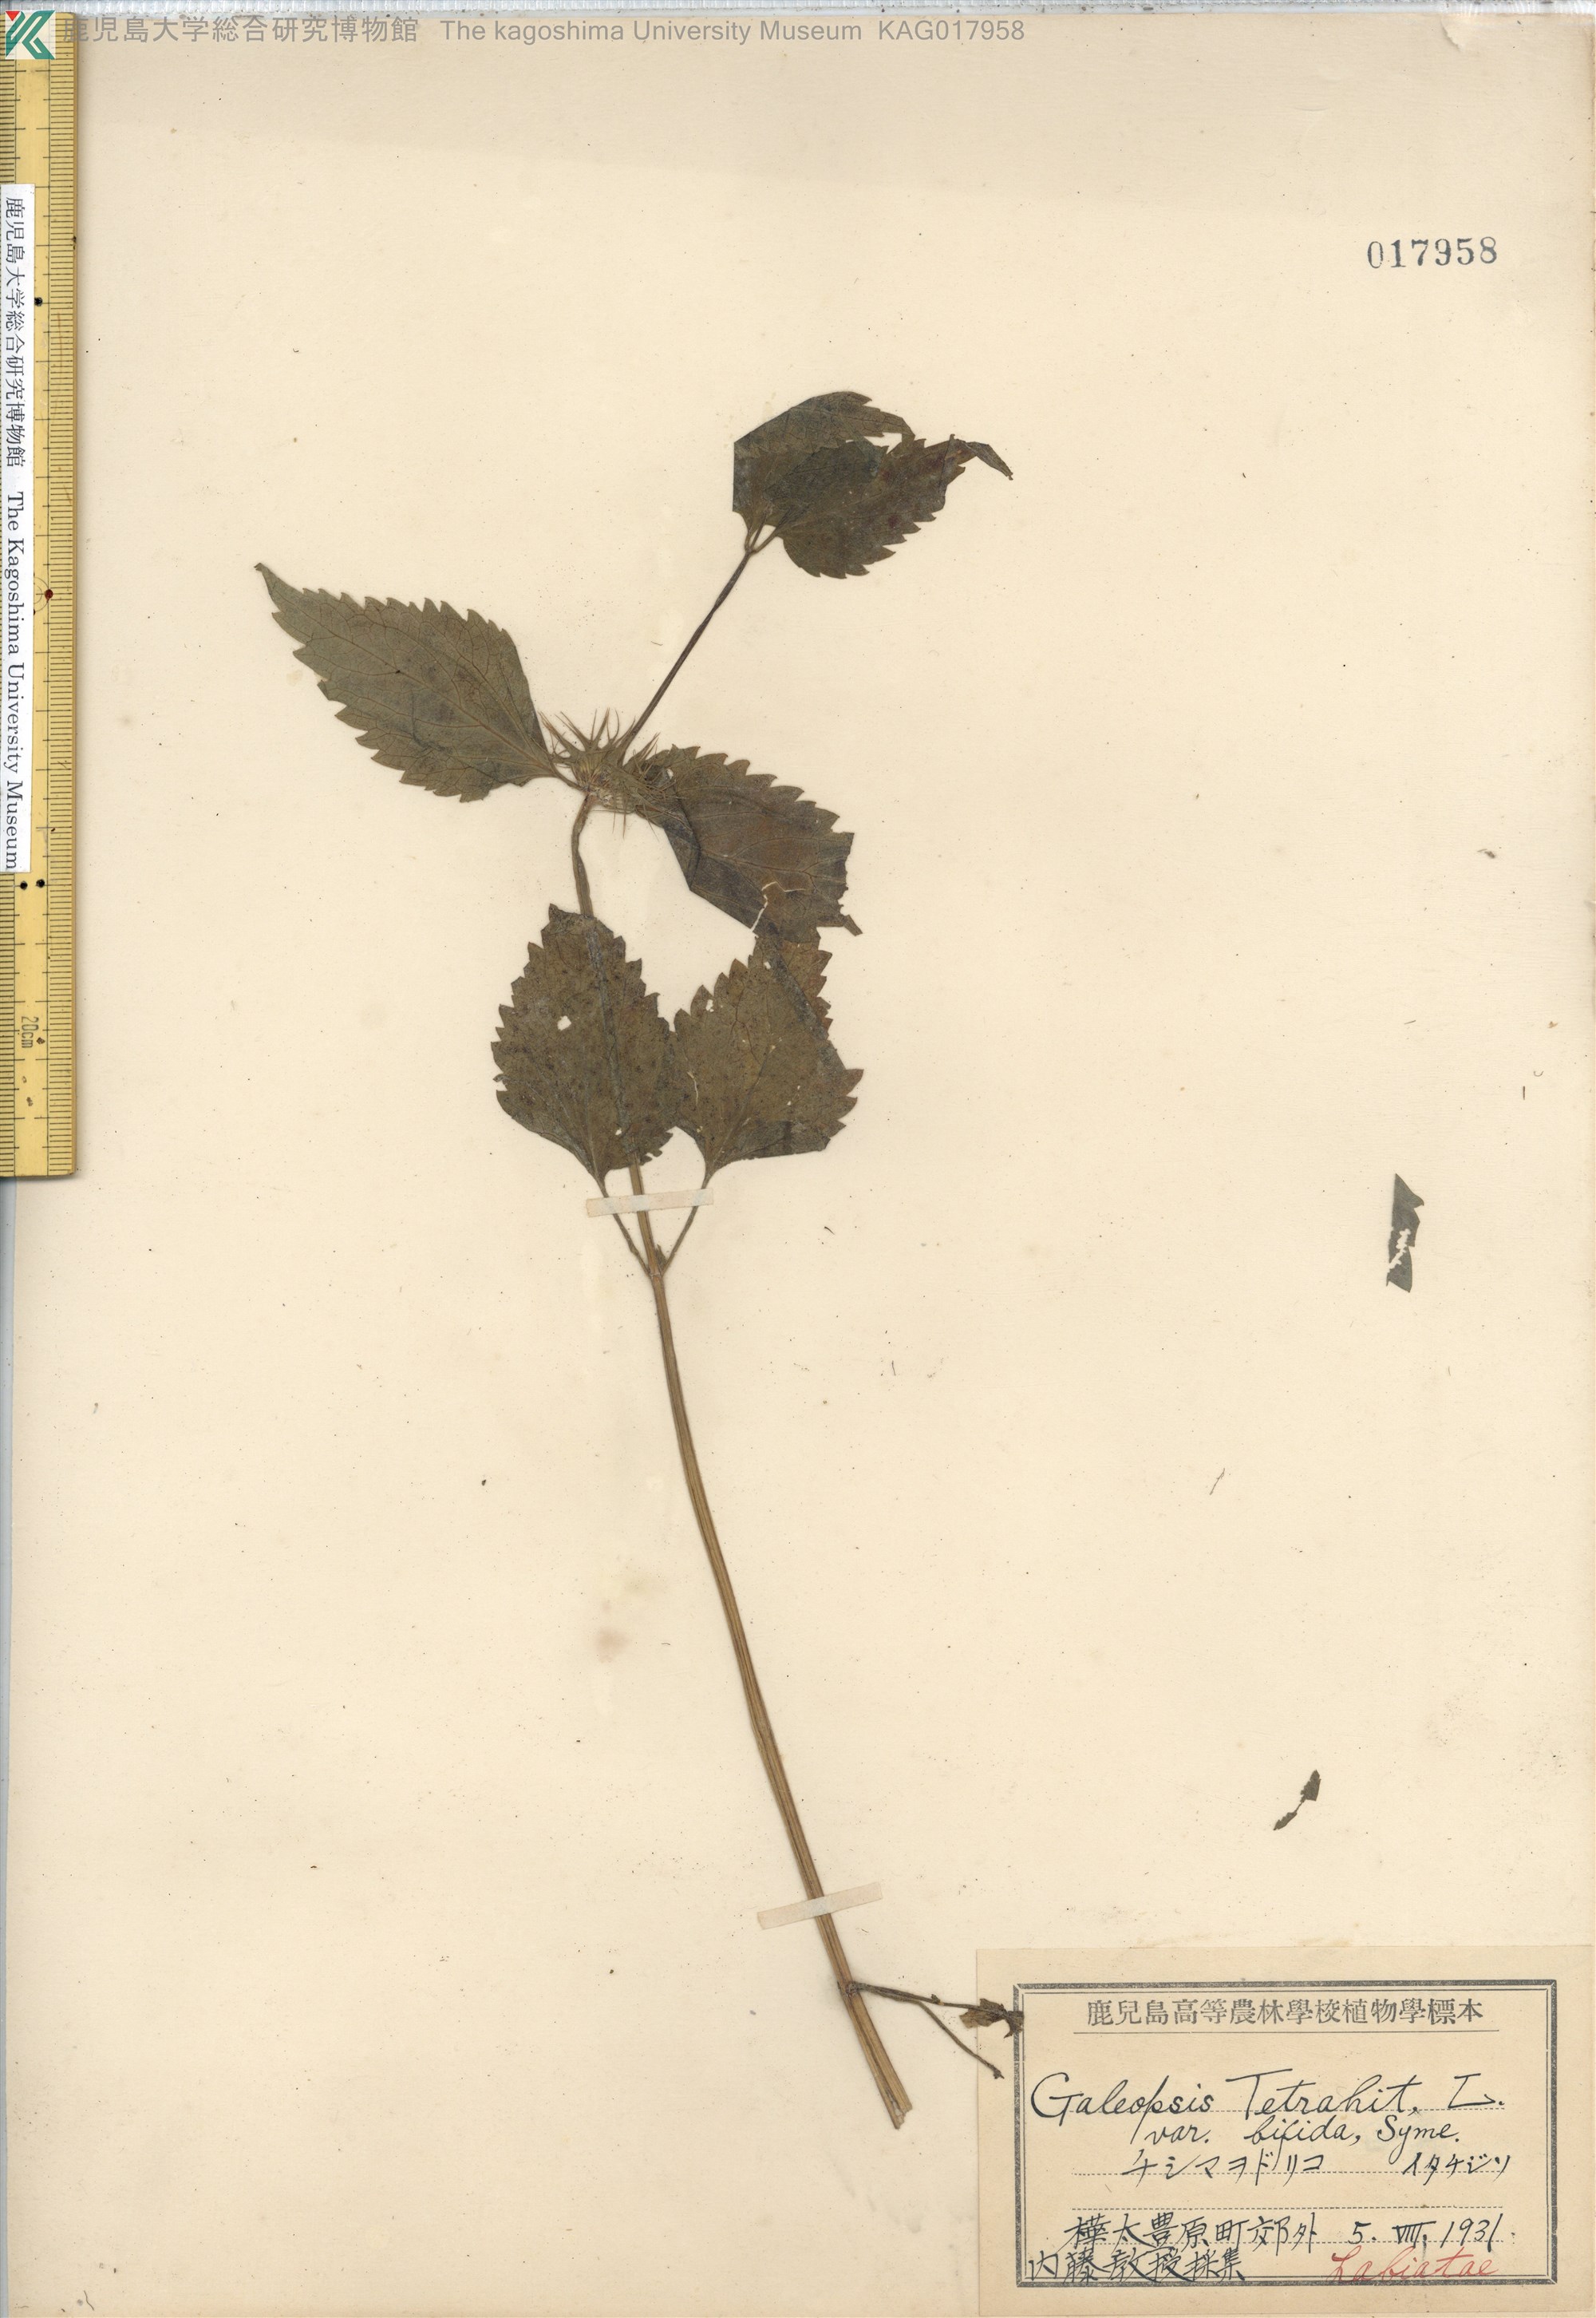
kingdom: Plantae
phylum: Tracheophyta
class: Magnoliopsida
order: Lamiales
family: Lamiaceae
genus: Lamium
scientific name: Lamium album
